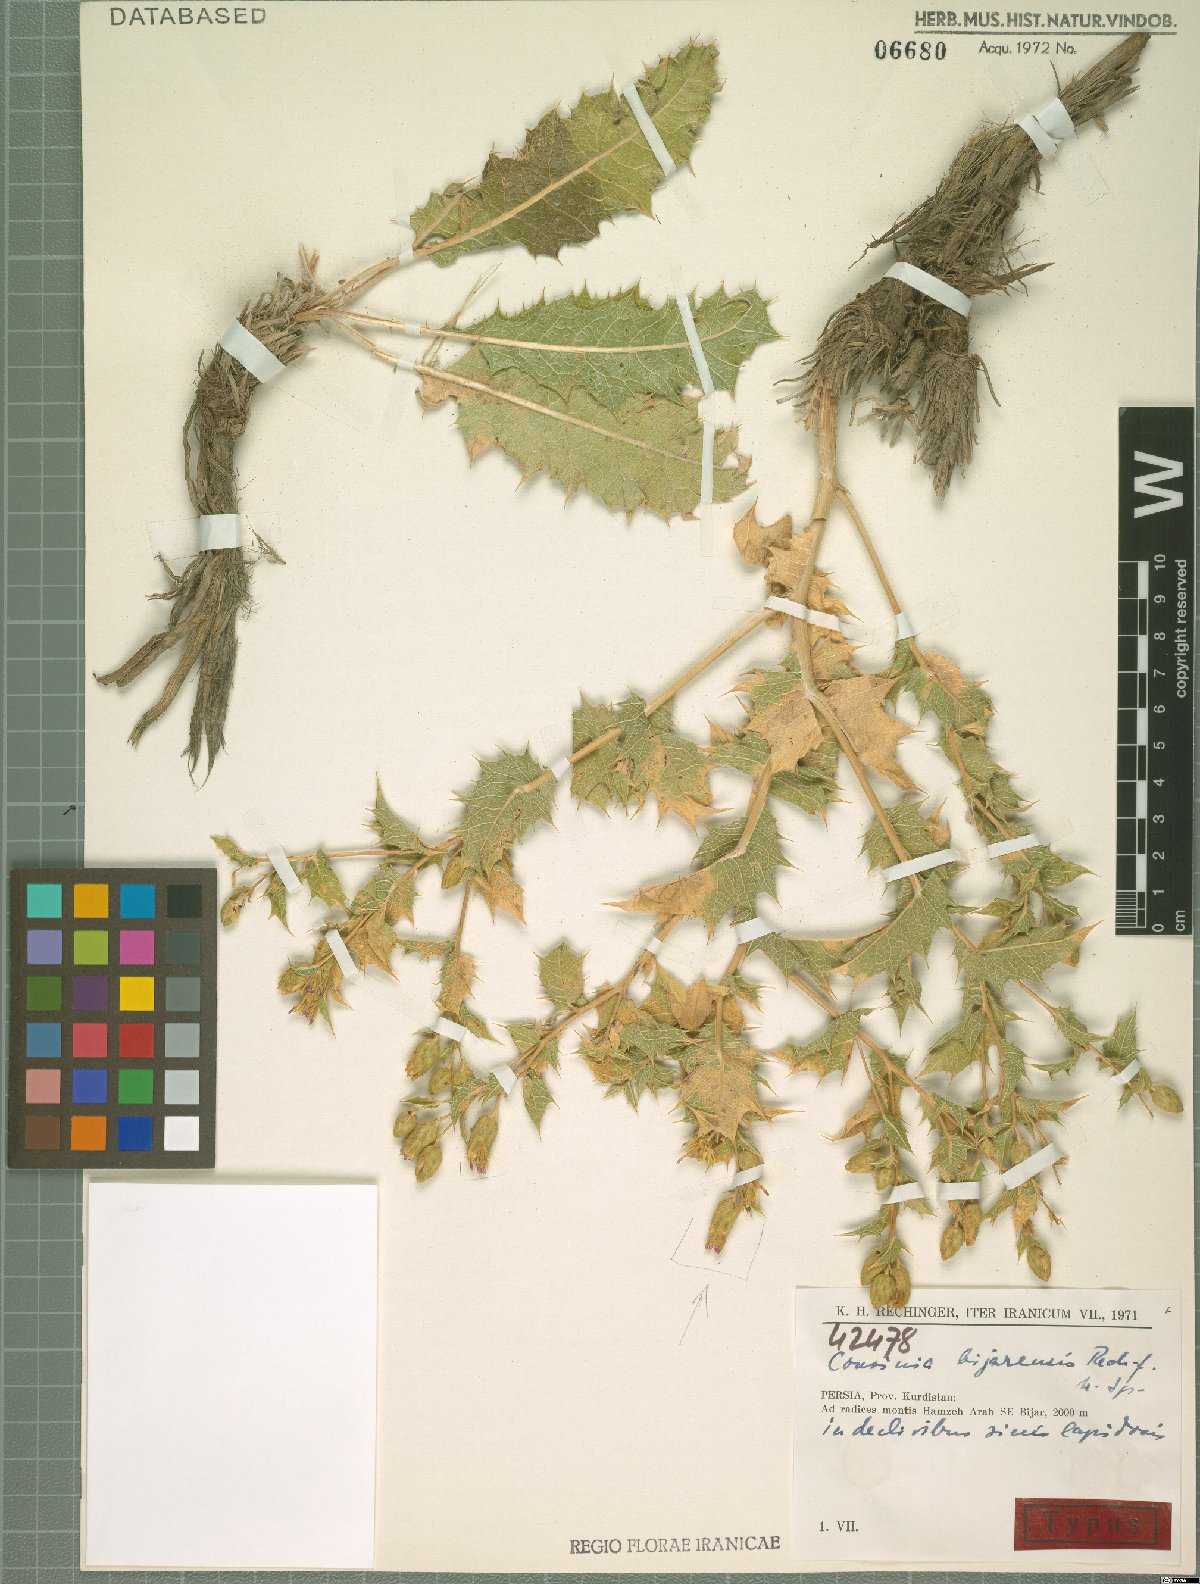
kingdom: Plantae
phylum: Tracheophyta
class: Magnoliopsida
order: Asterales
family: Asteraceae
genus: Cousinia
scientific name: Cousinia bijarensis
